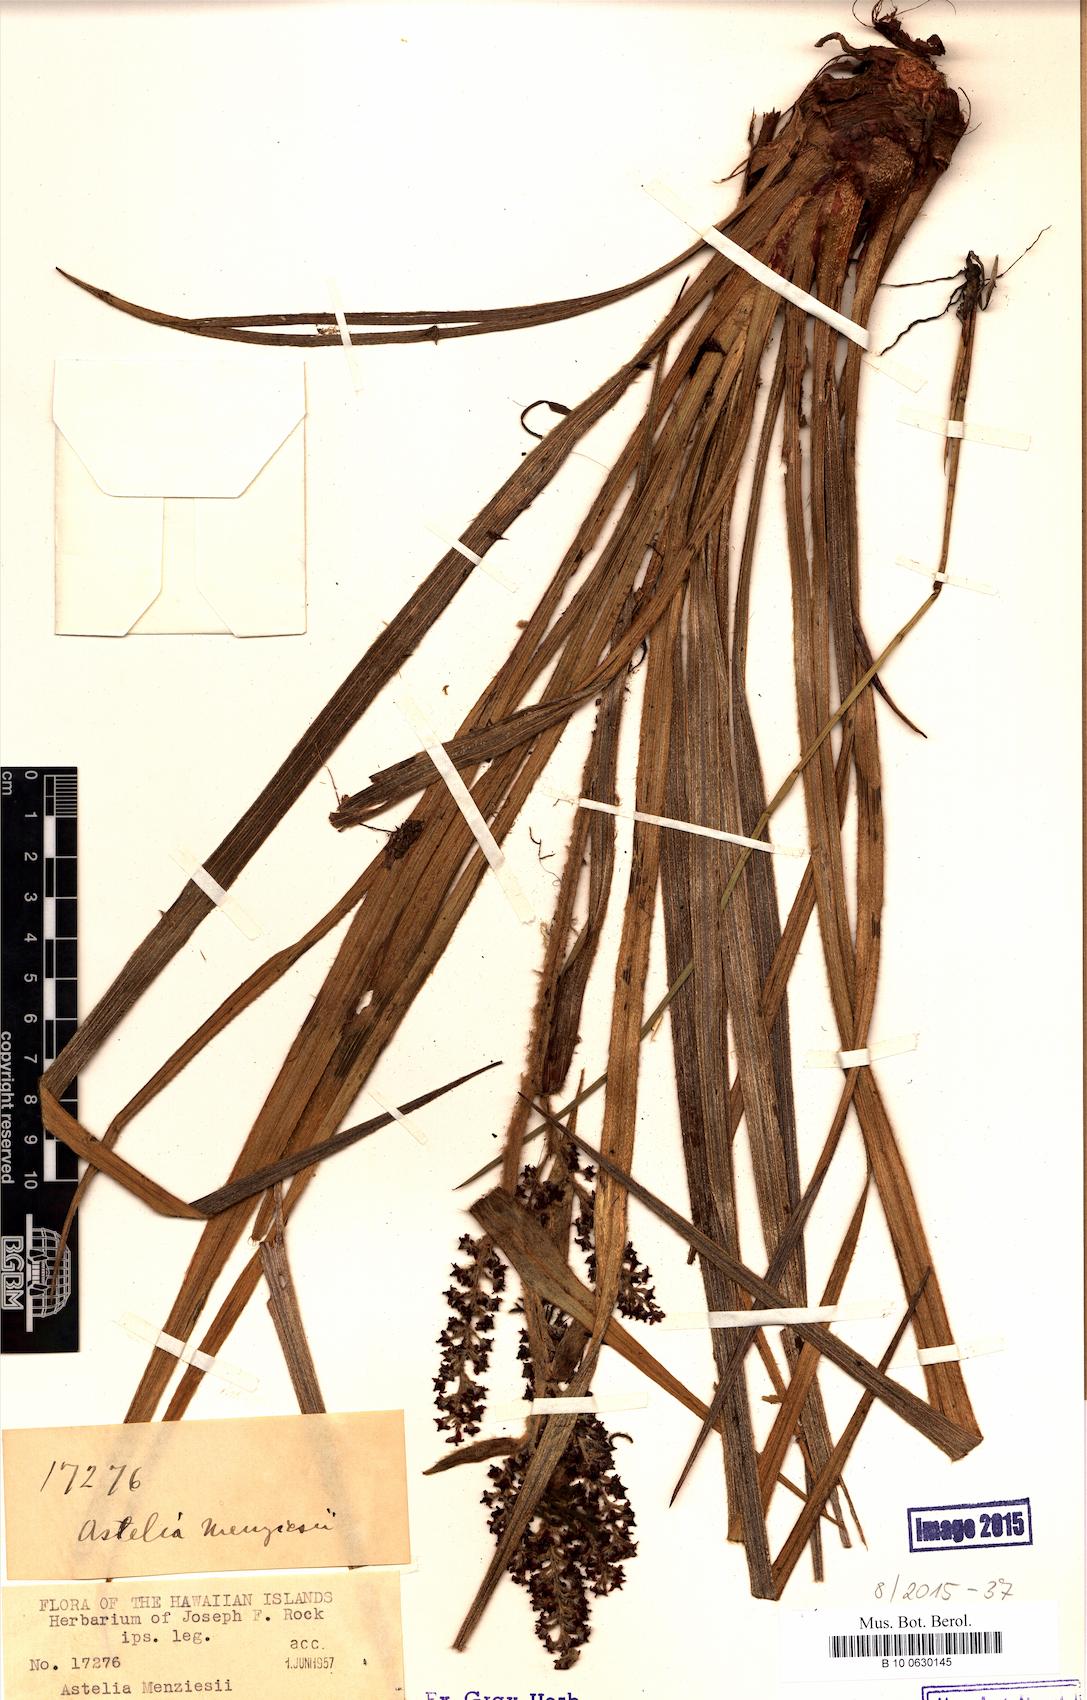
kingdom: Plantae
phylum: Tracheophyta
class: Liliopsida
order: Asparagales
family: Asteliaceae
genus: Astelia
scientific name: Astelia menziesiana
